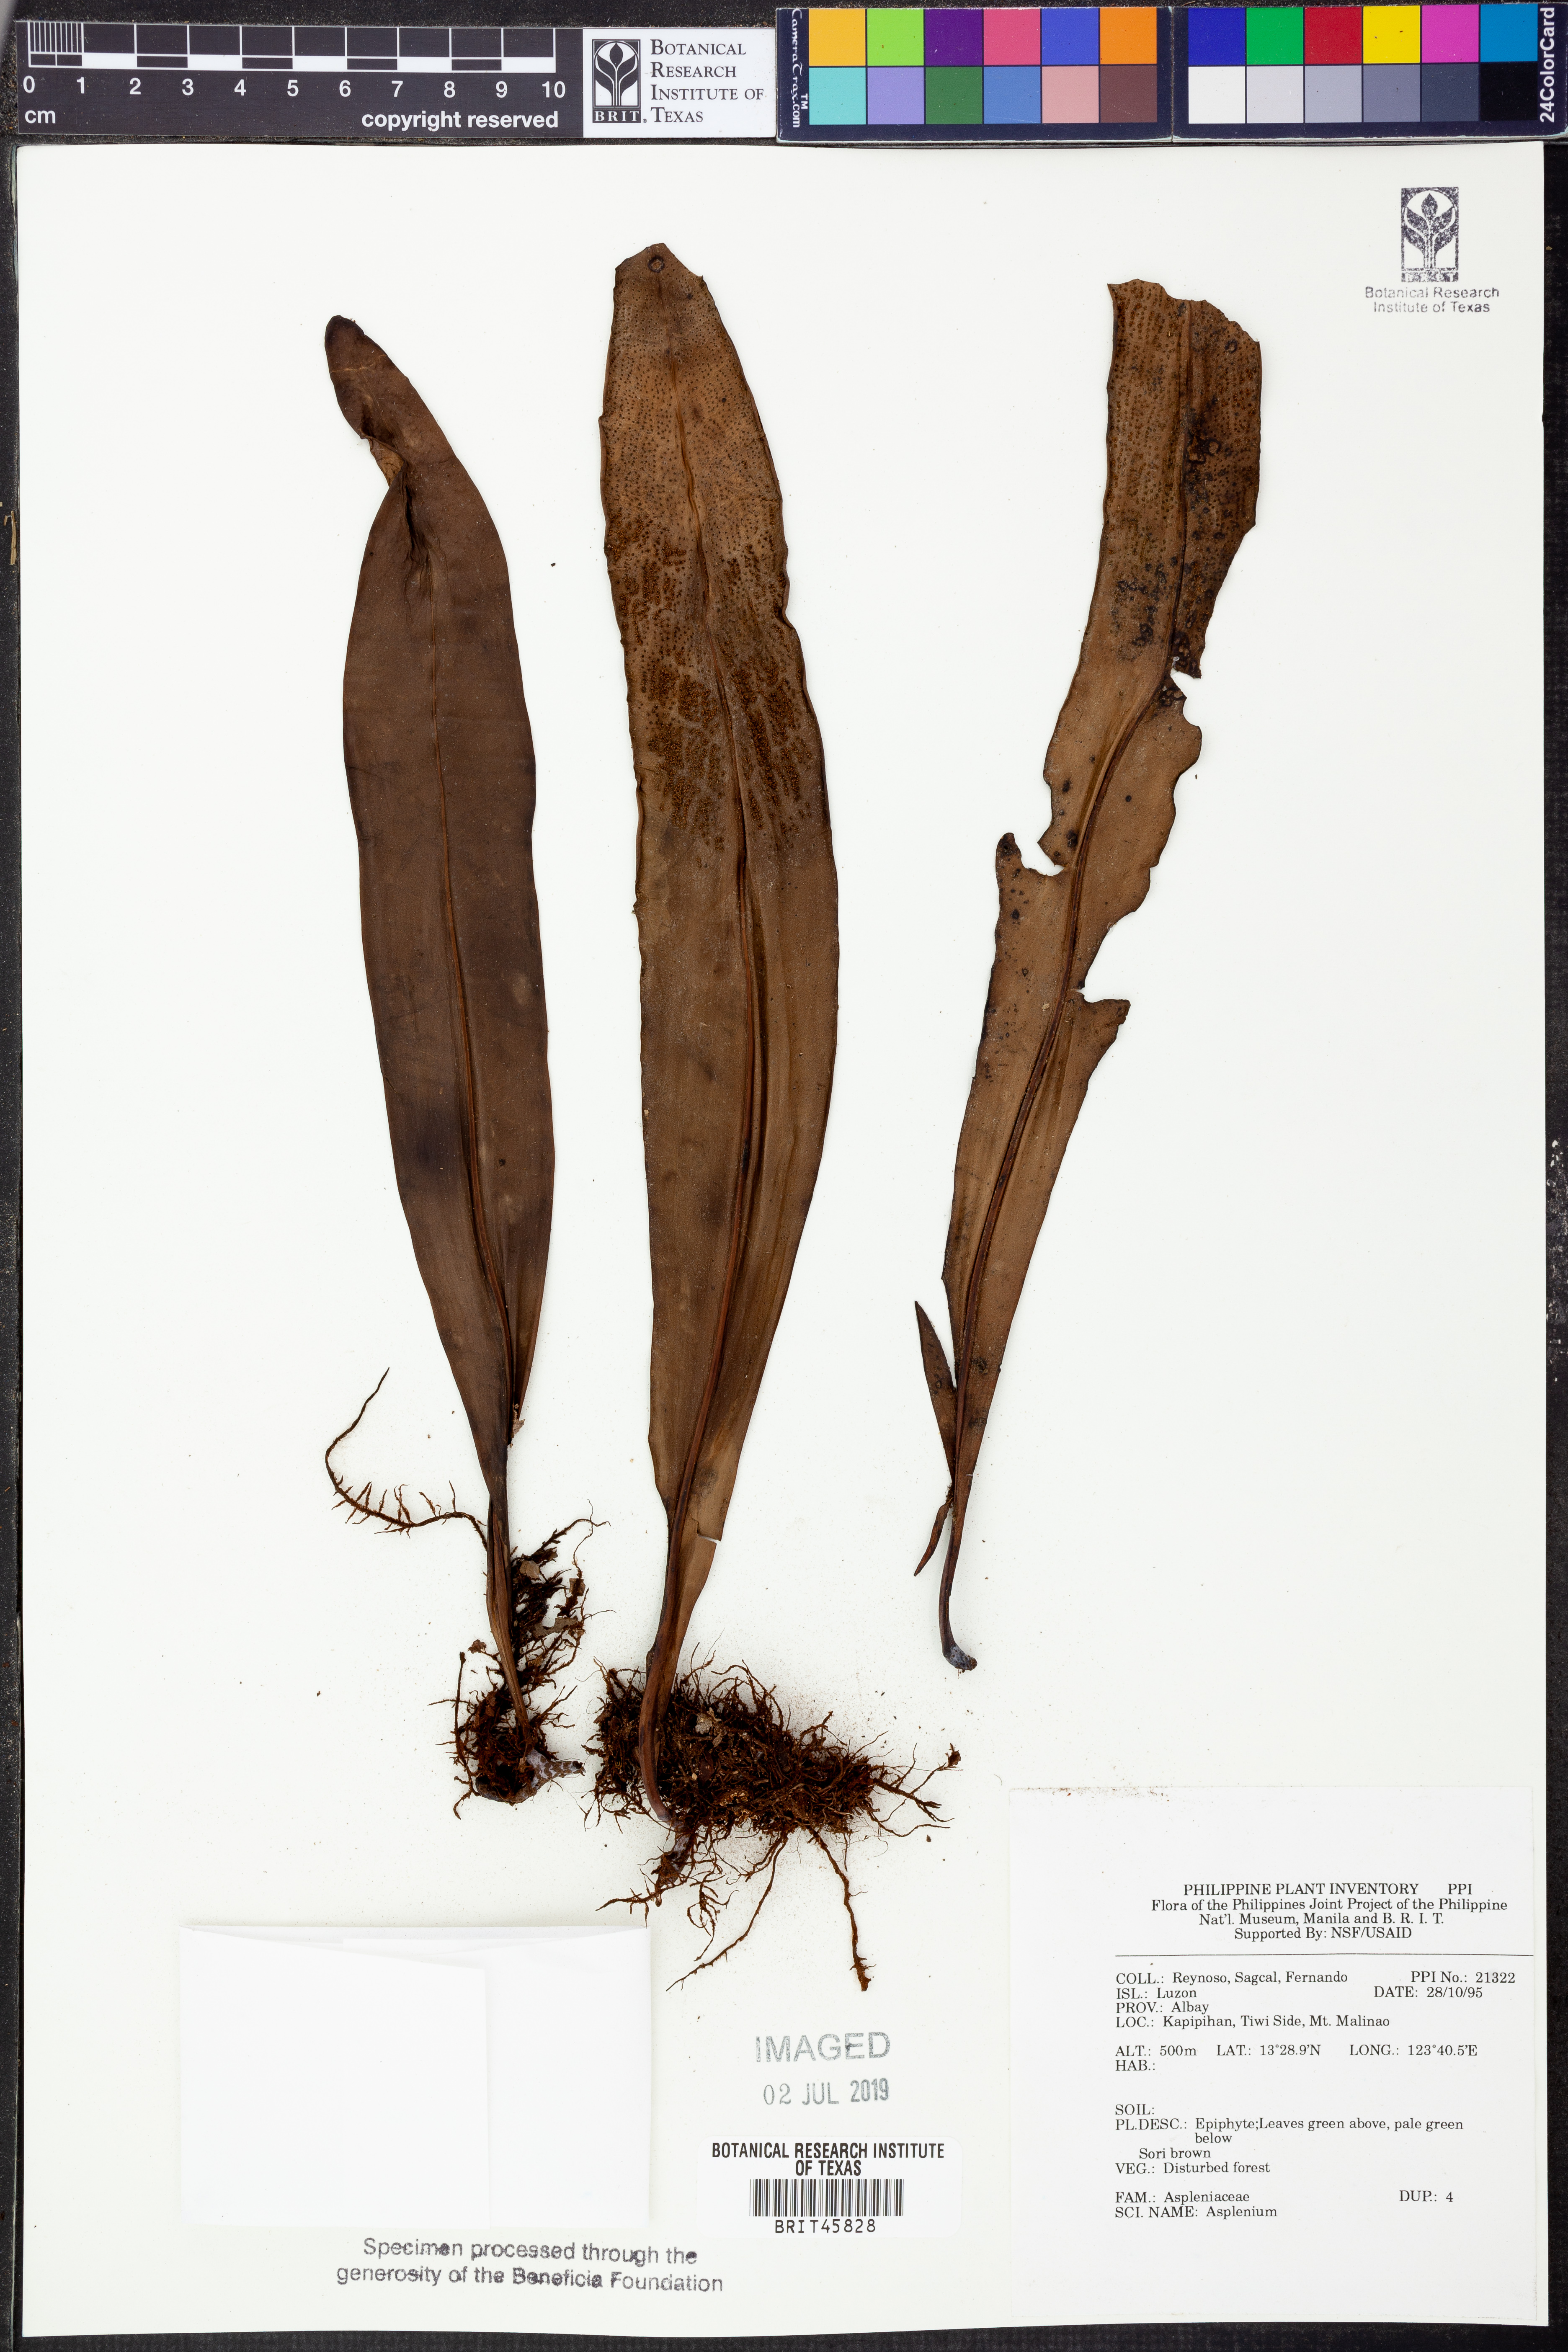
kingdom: Plantae
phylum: Tracheophyta
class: Polypodiopsida
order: Polypodiales
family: Aspleniaceae
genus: Asplenium
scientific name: Asplenium
